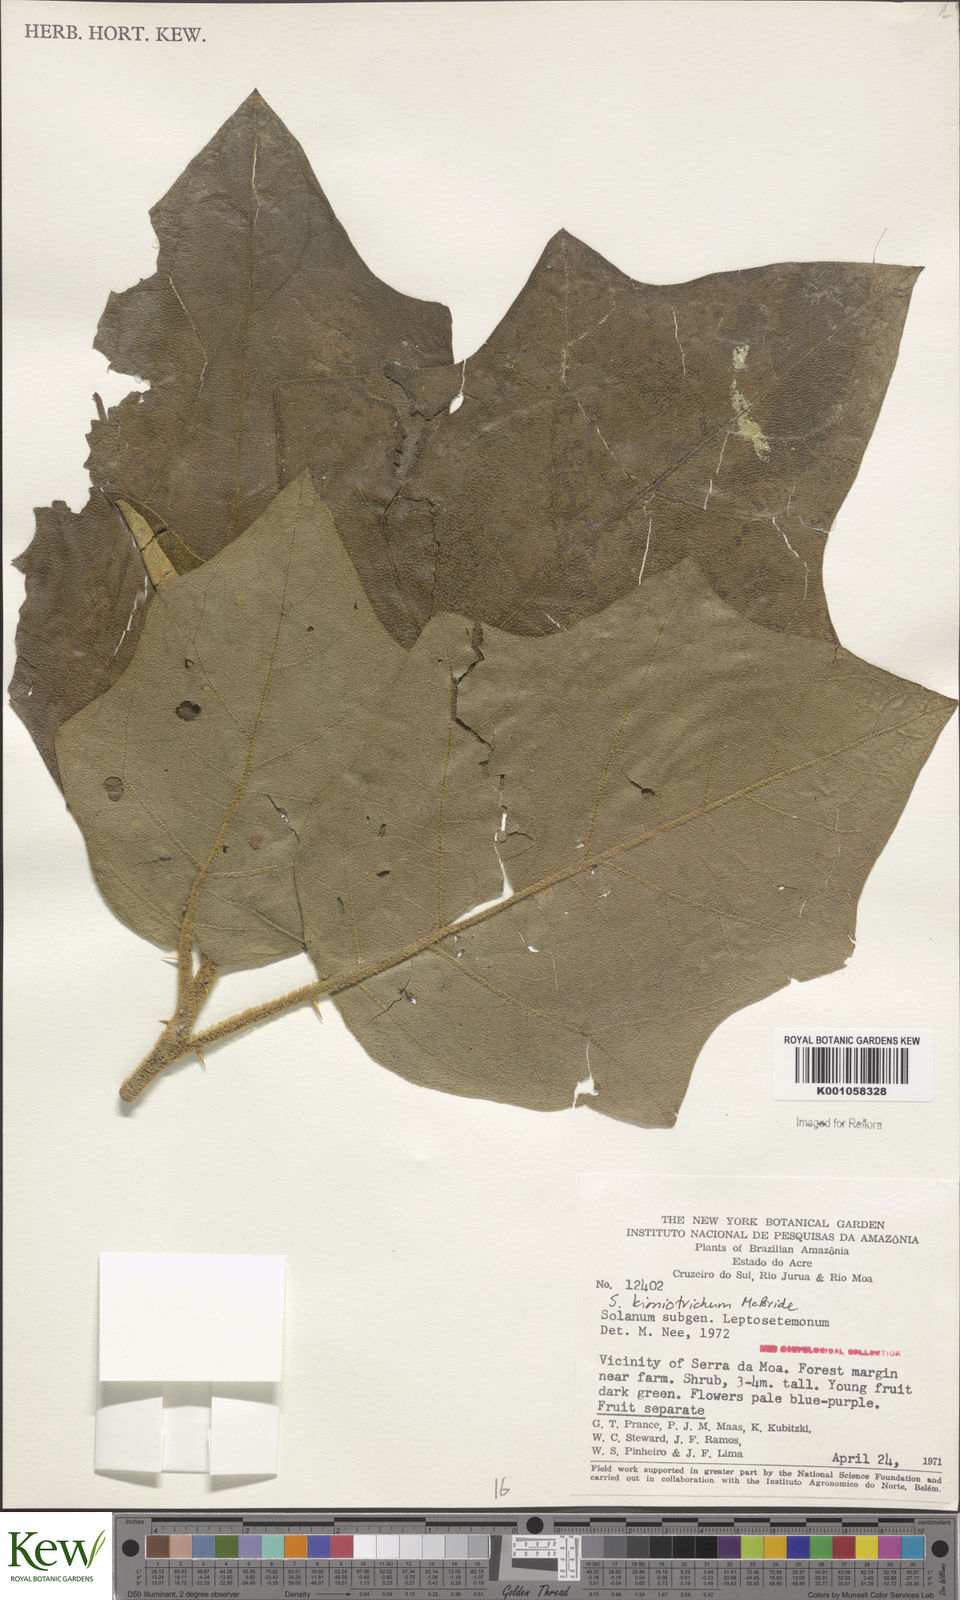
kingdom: Plantae
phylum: Tracheophyta
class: Magnoliopsida
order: Solanales
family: Solanaceae
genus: Solanum
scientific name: Solanum
